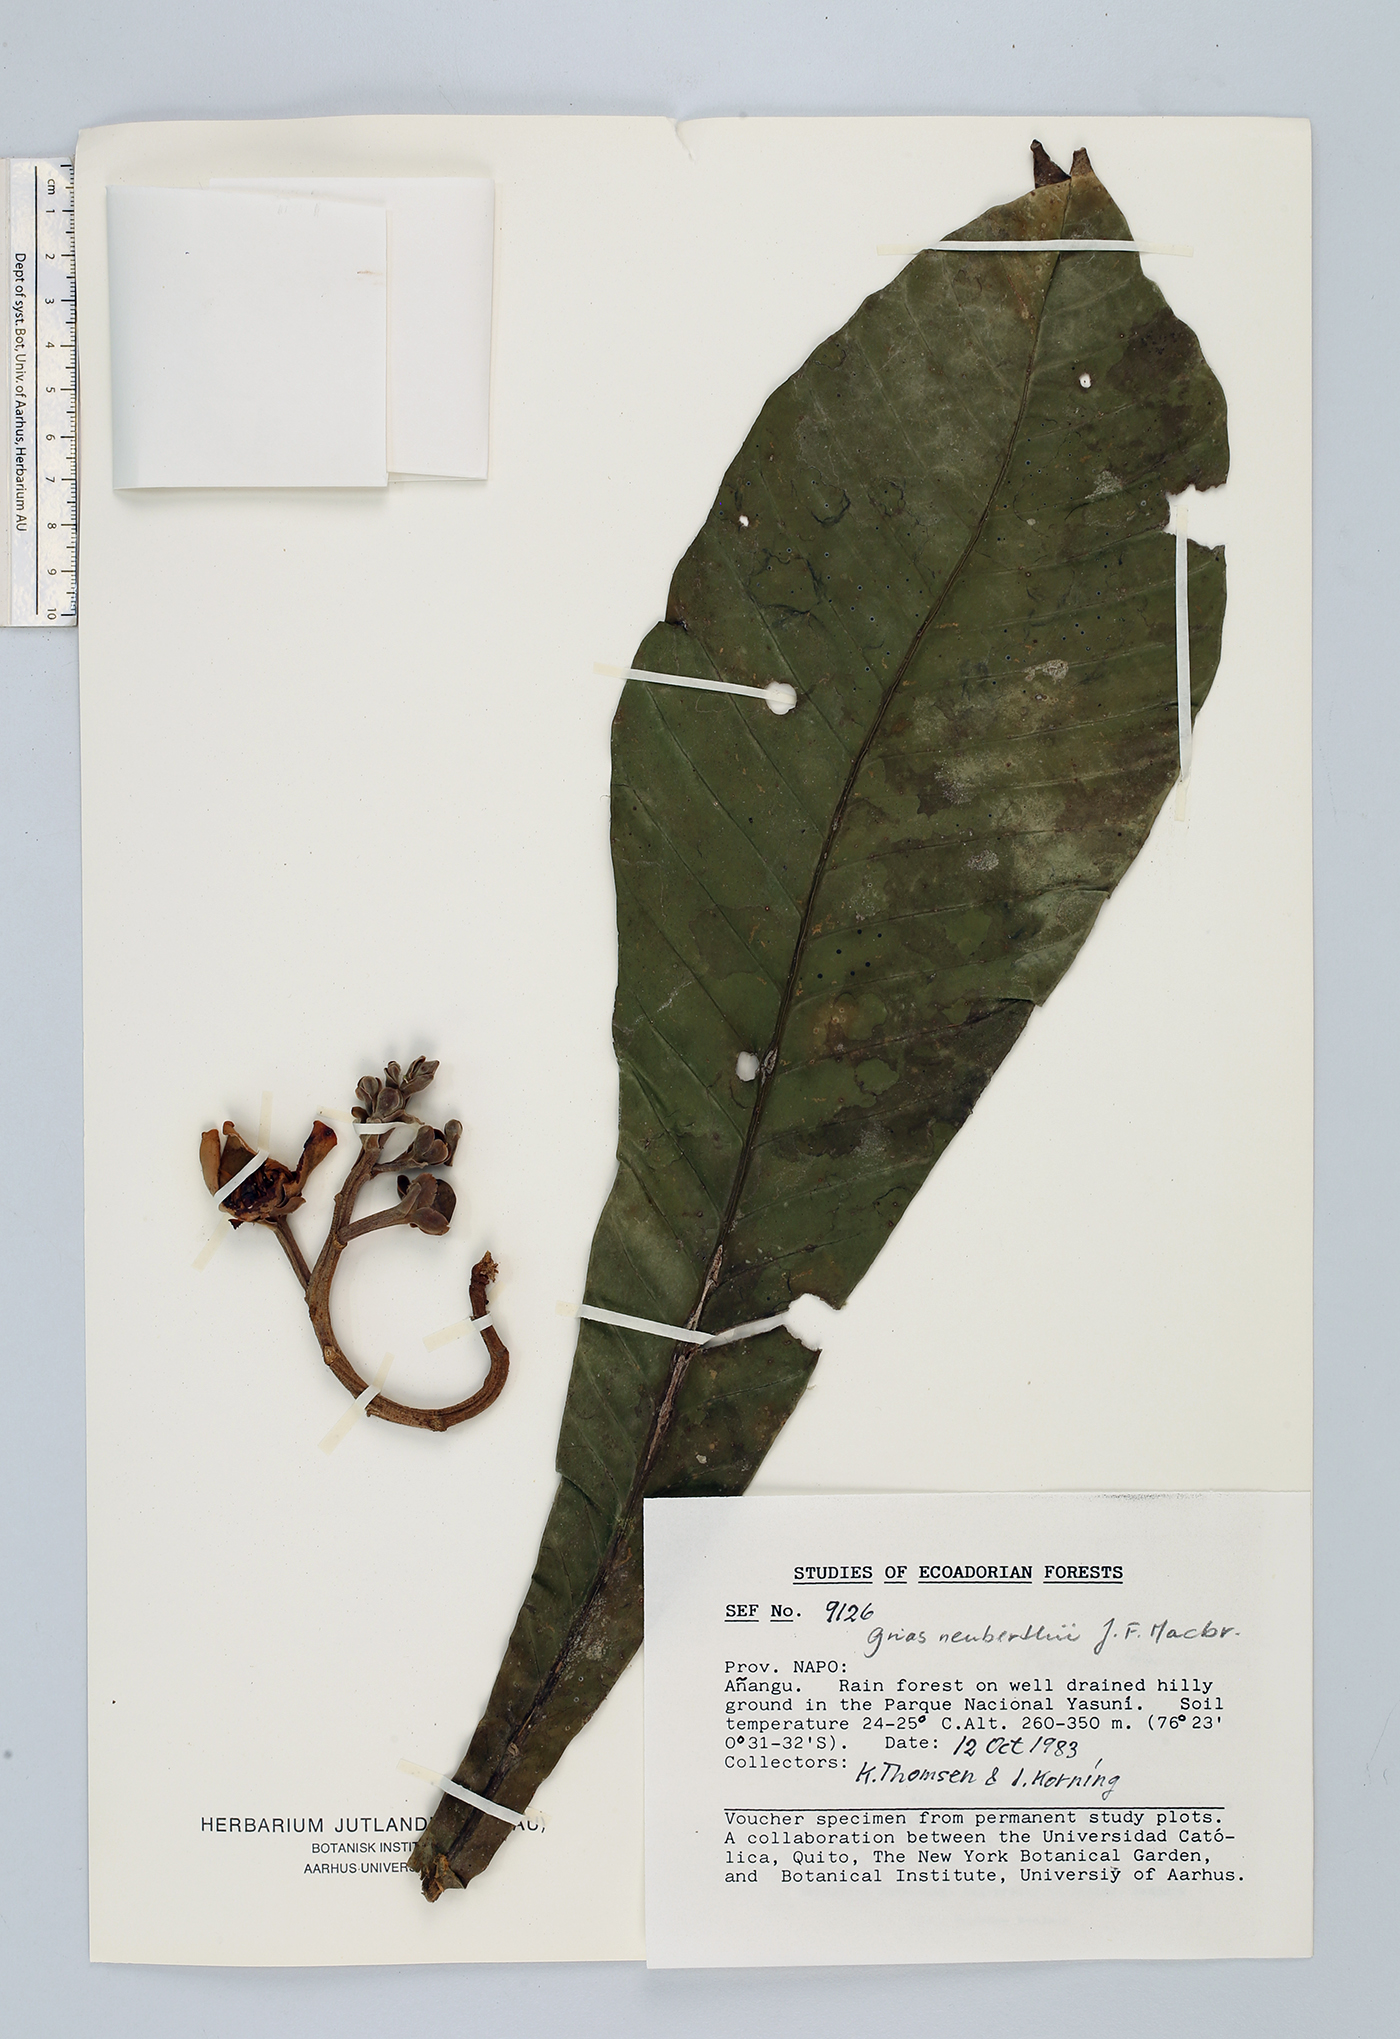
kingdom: Plantae
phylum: Tracheophyta
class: Magnoliopsida
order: Ericales
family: Lecythidaceae
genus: Grias
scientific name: Grias neuberthii
